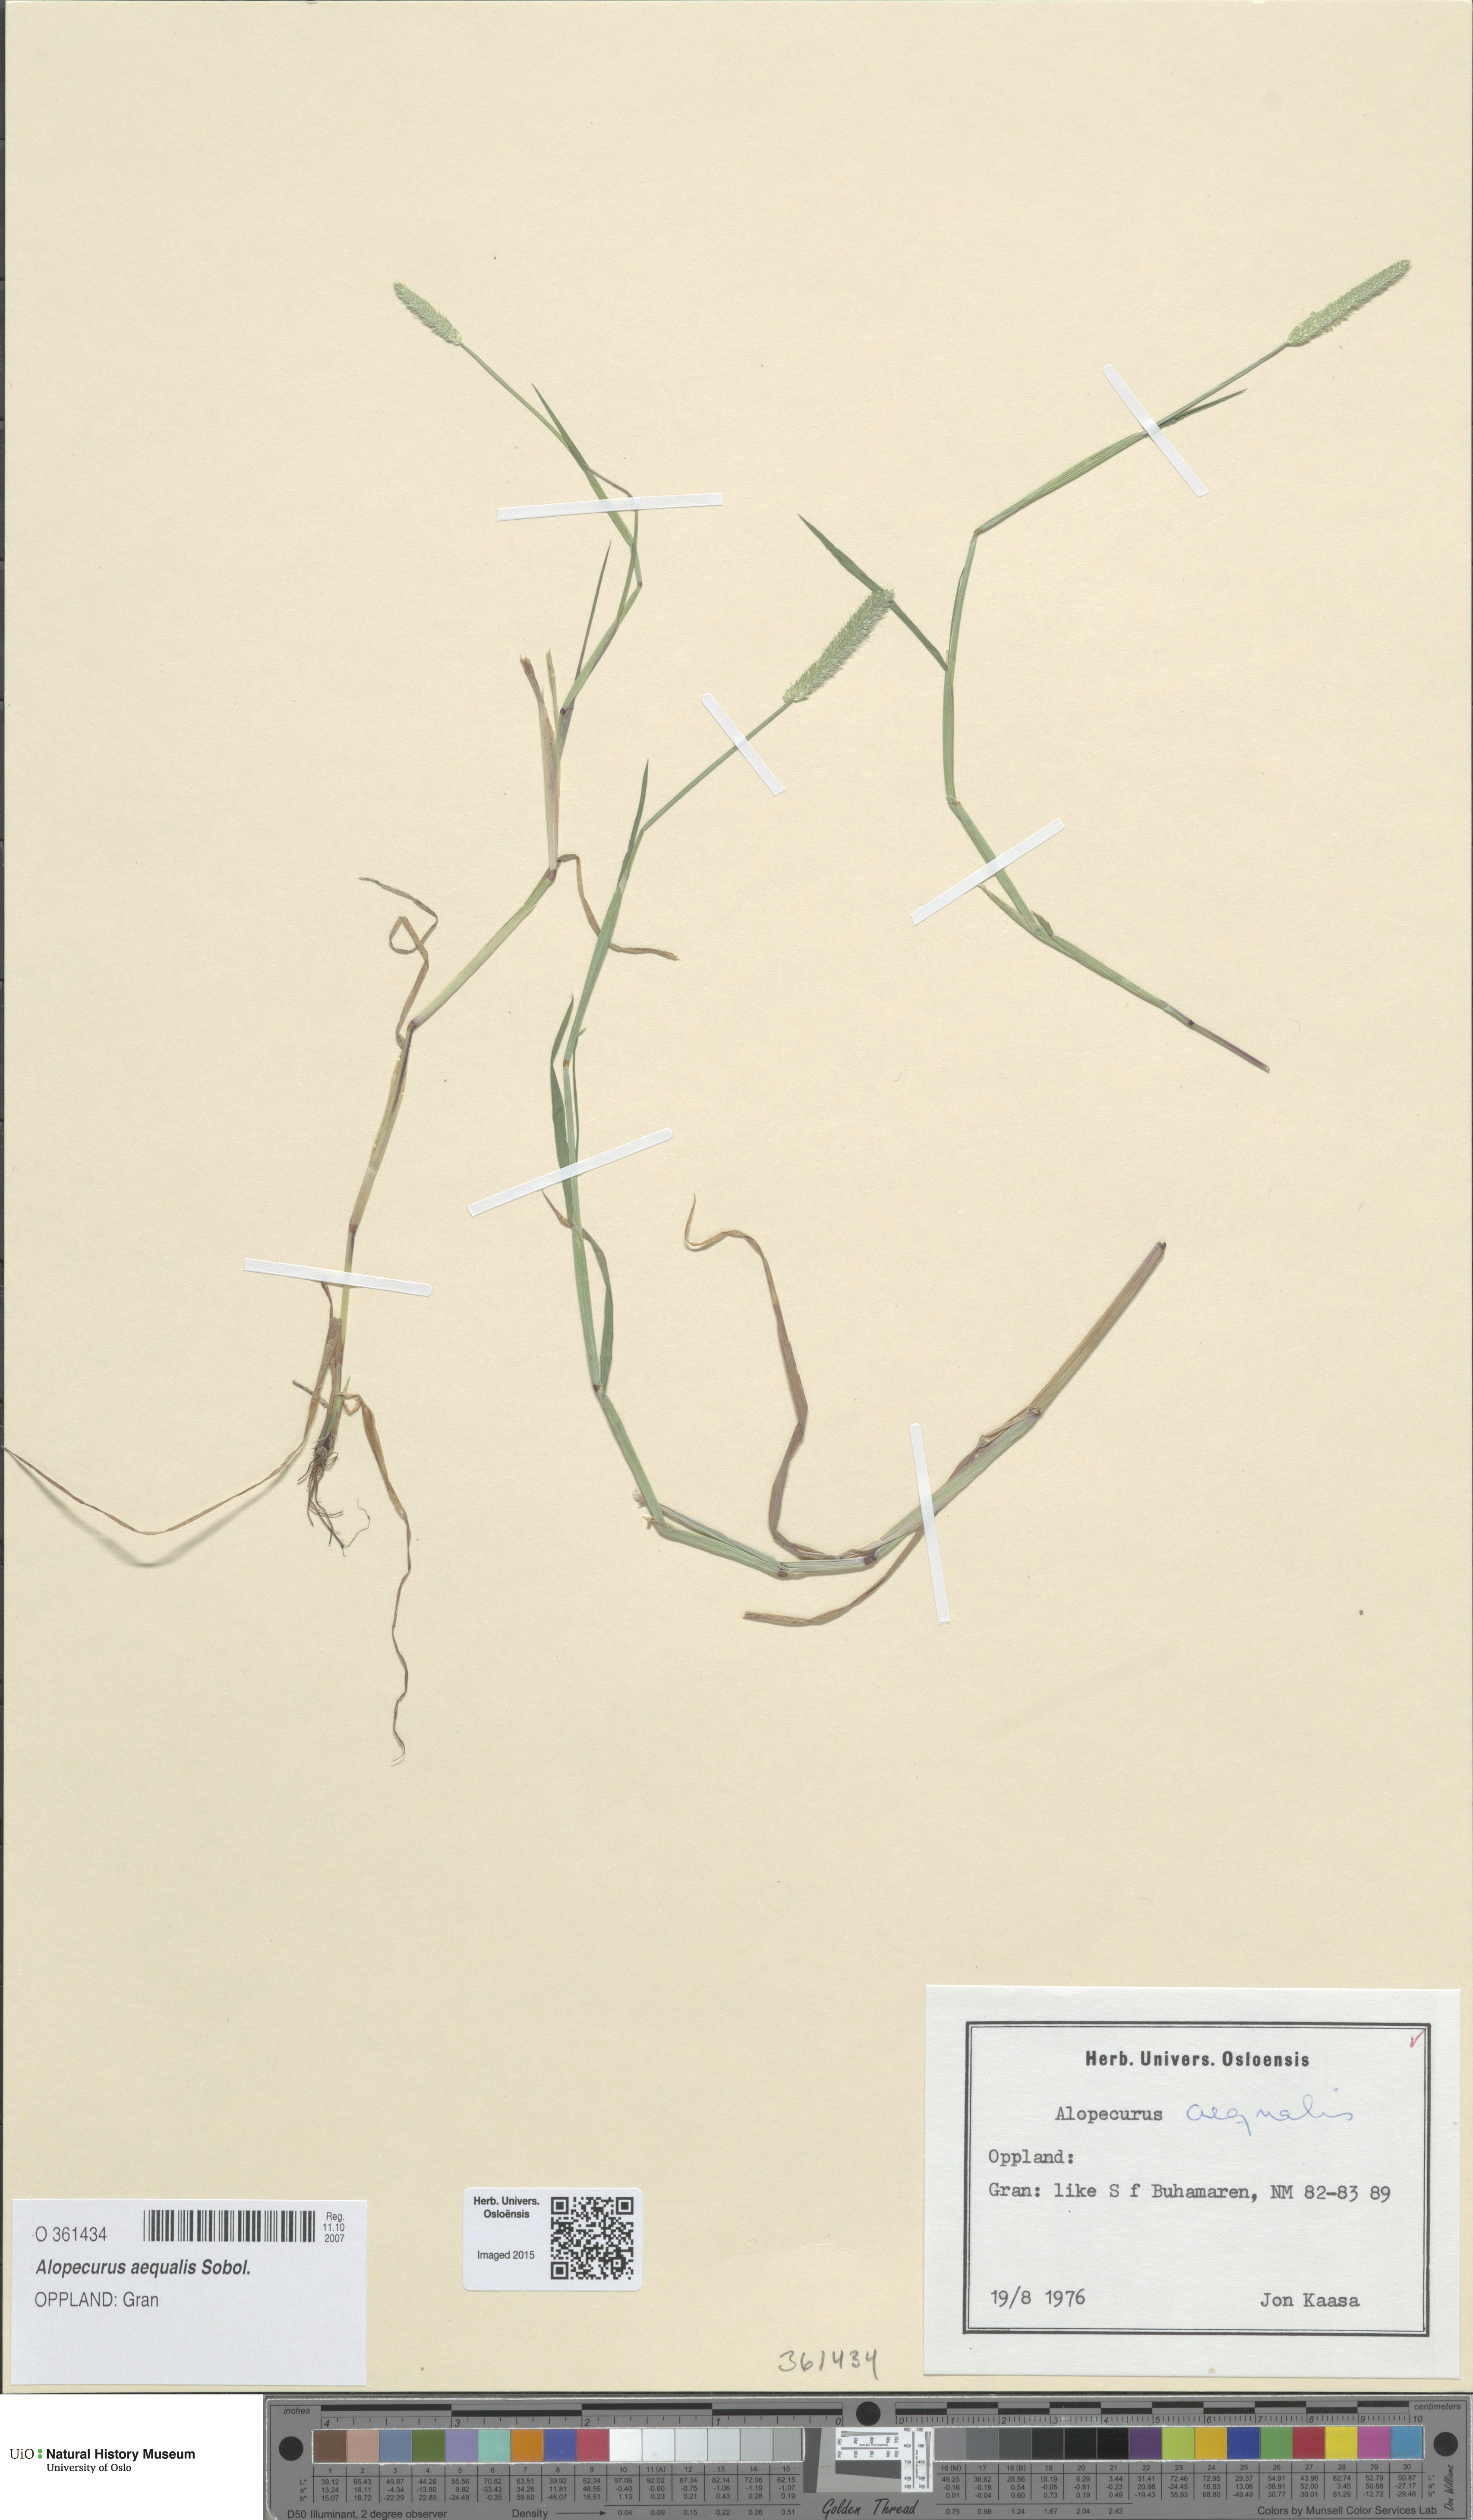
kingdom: Plantae
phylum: Tracheophyta
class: Liliopsida
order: Poales
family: Poaceae
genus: Alopecurus
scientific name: Alopecurus aequalis
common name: Orange foxtail
